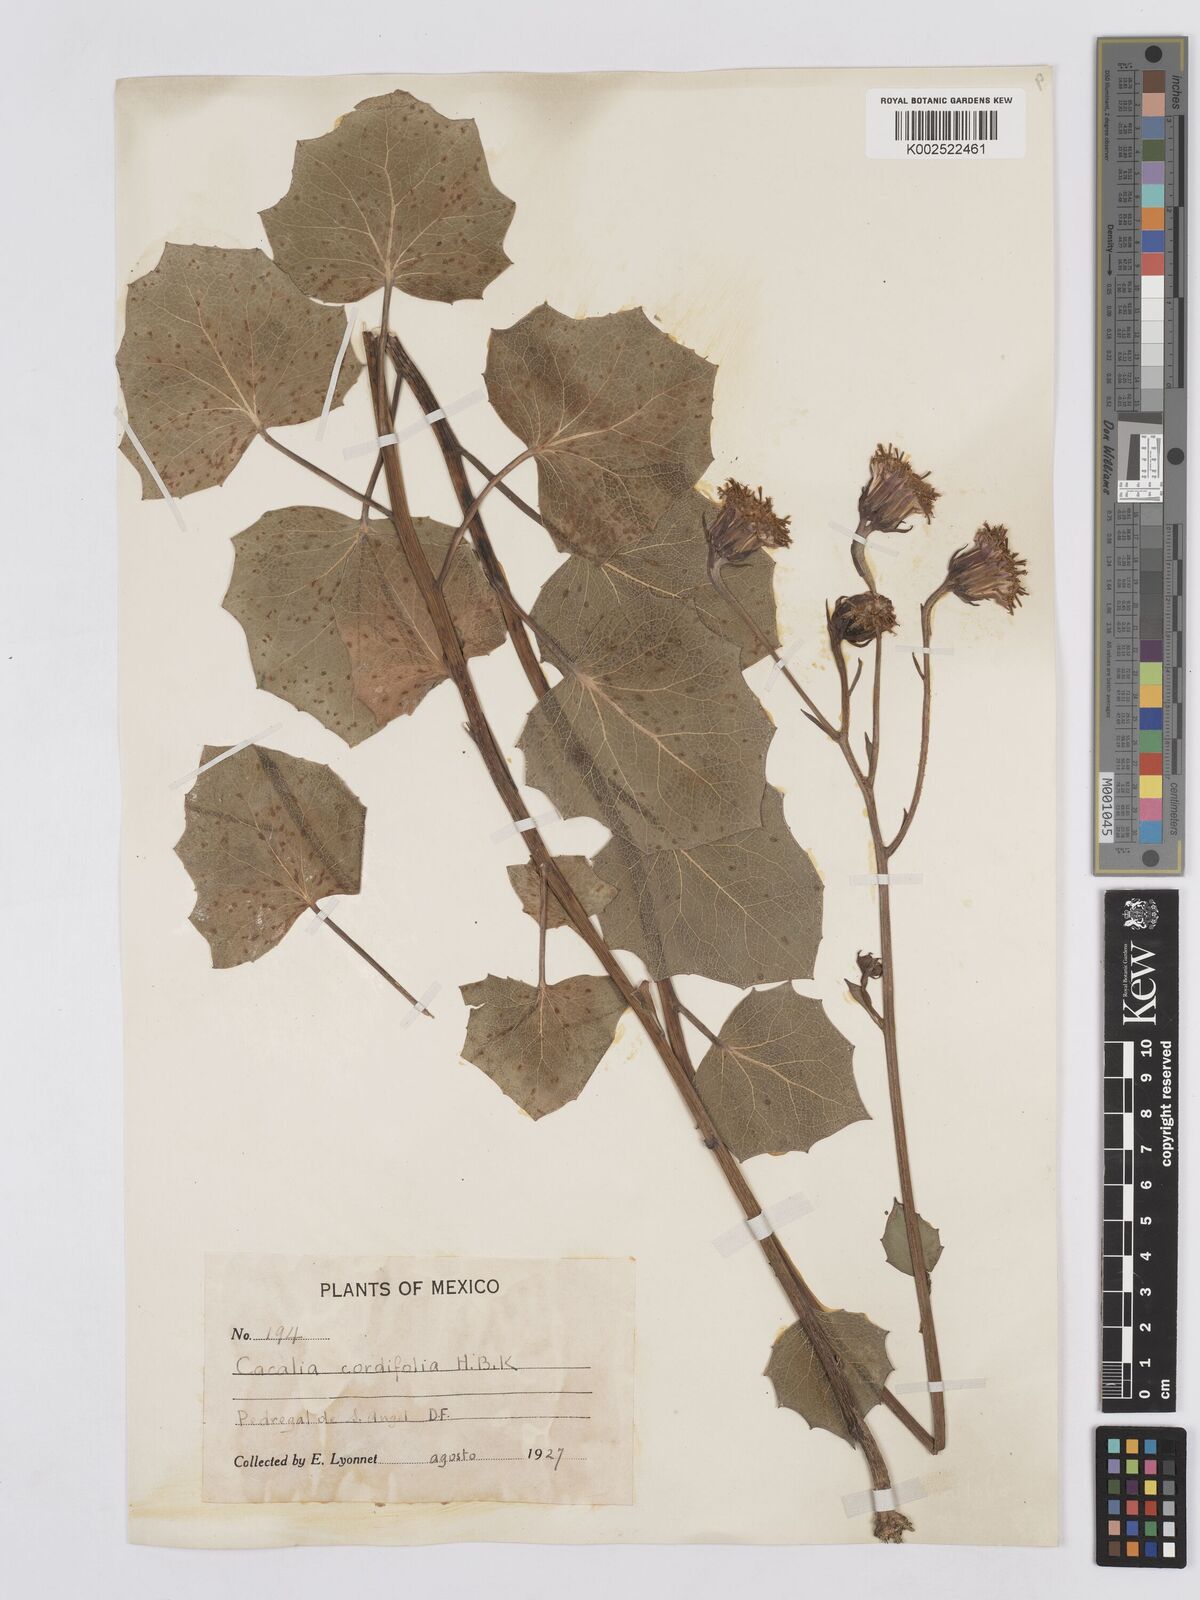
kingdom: Plantae
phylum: Tracheophyta
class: Magnoliopsida
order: Asterales
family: Asteraceae
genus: Roldana
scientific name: Roldana sessilifolia
